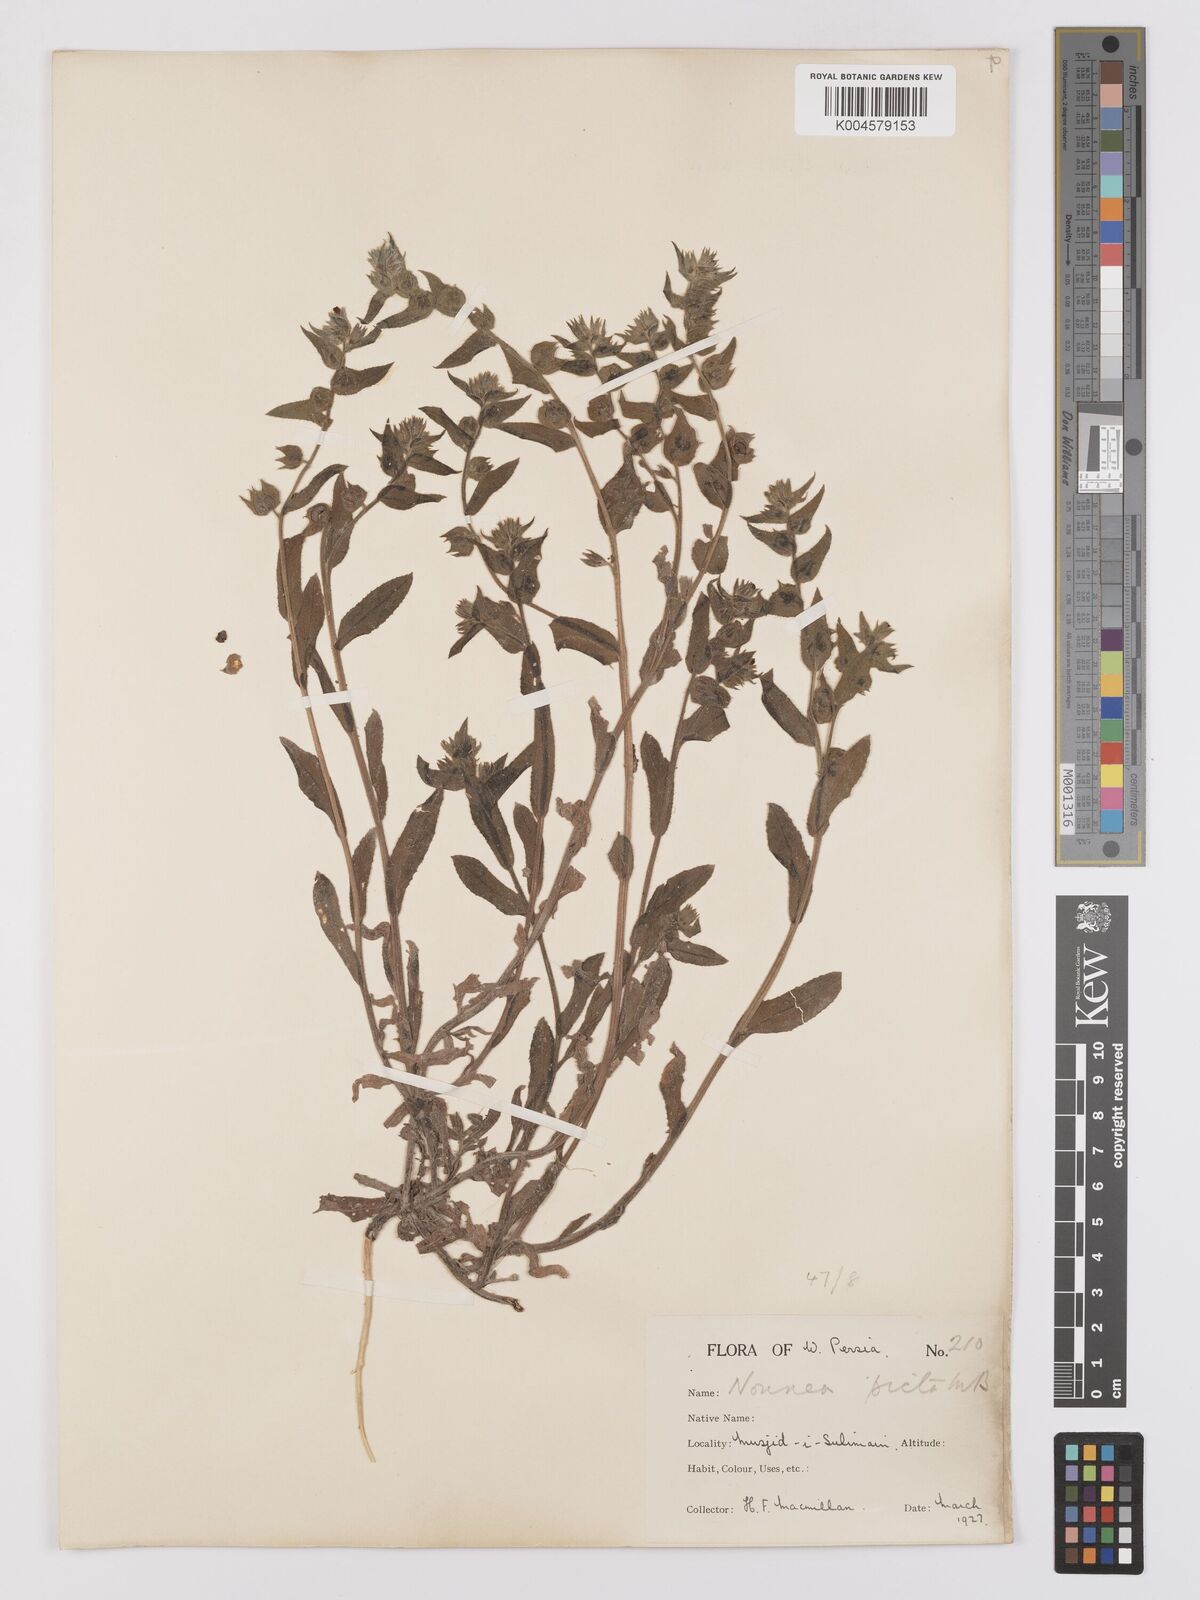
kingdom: Plantae
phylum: Tracheophyta
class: Magnoliopsida
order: Boraginales
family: Boraginaceae
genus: Nonea
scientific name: Nonea
